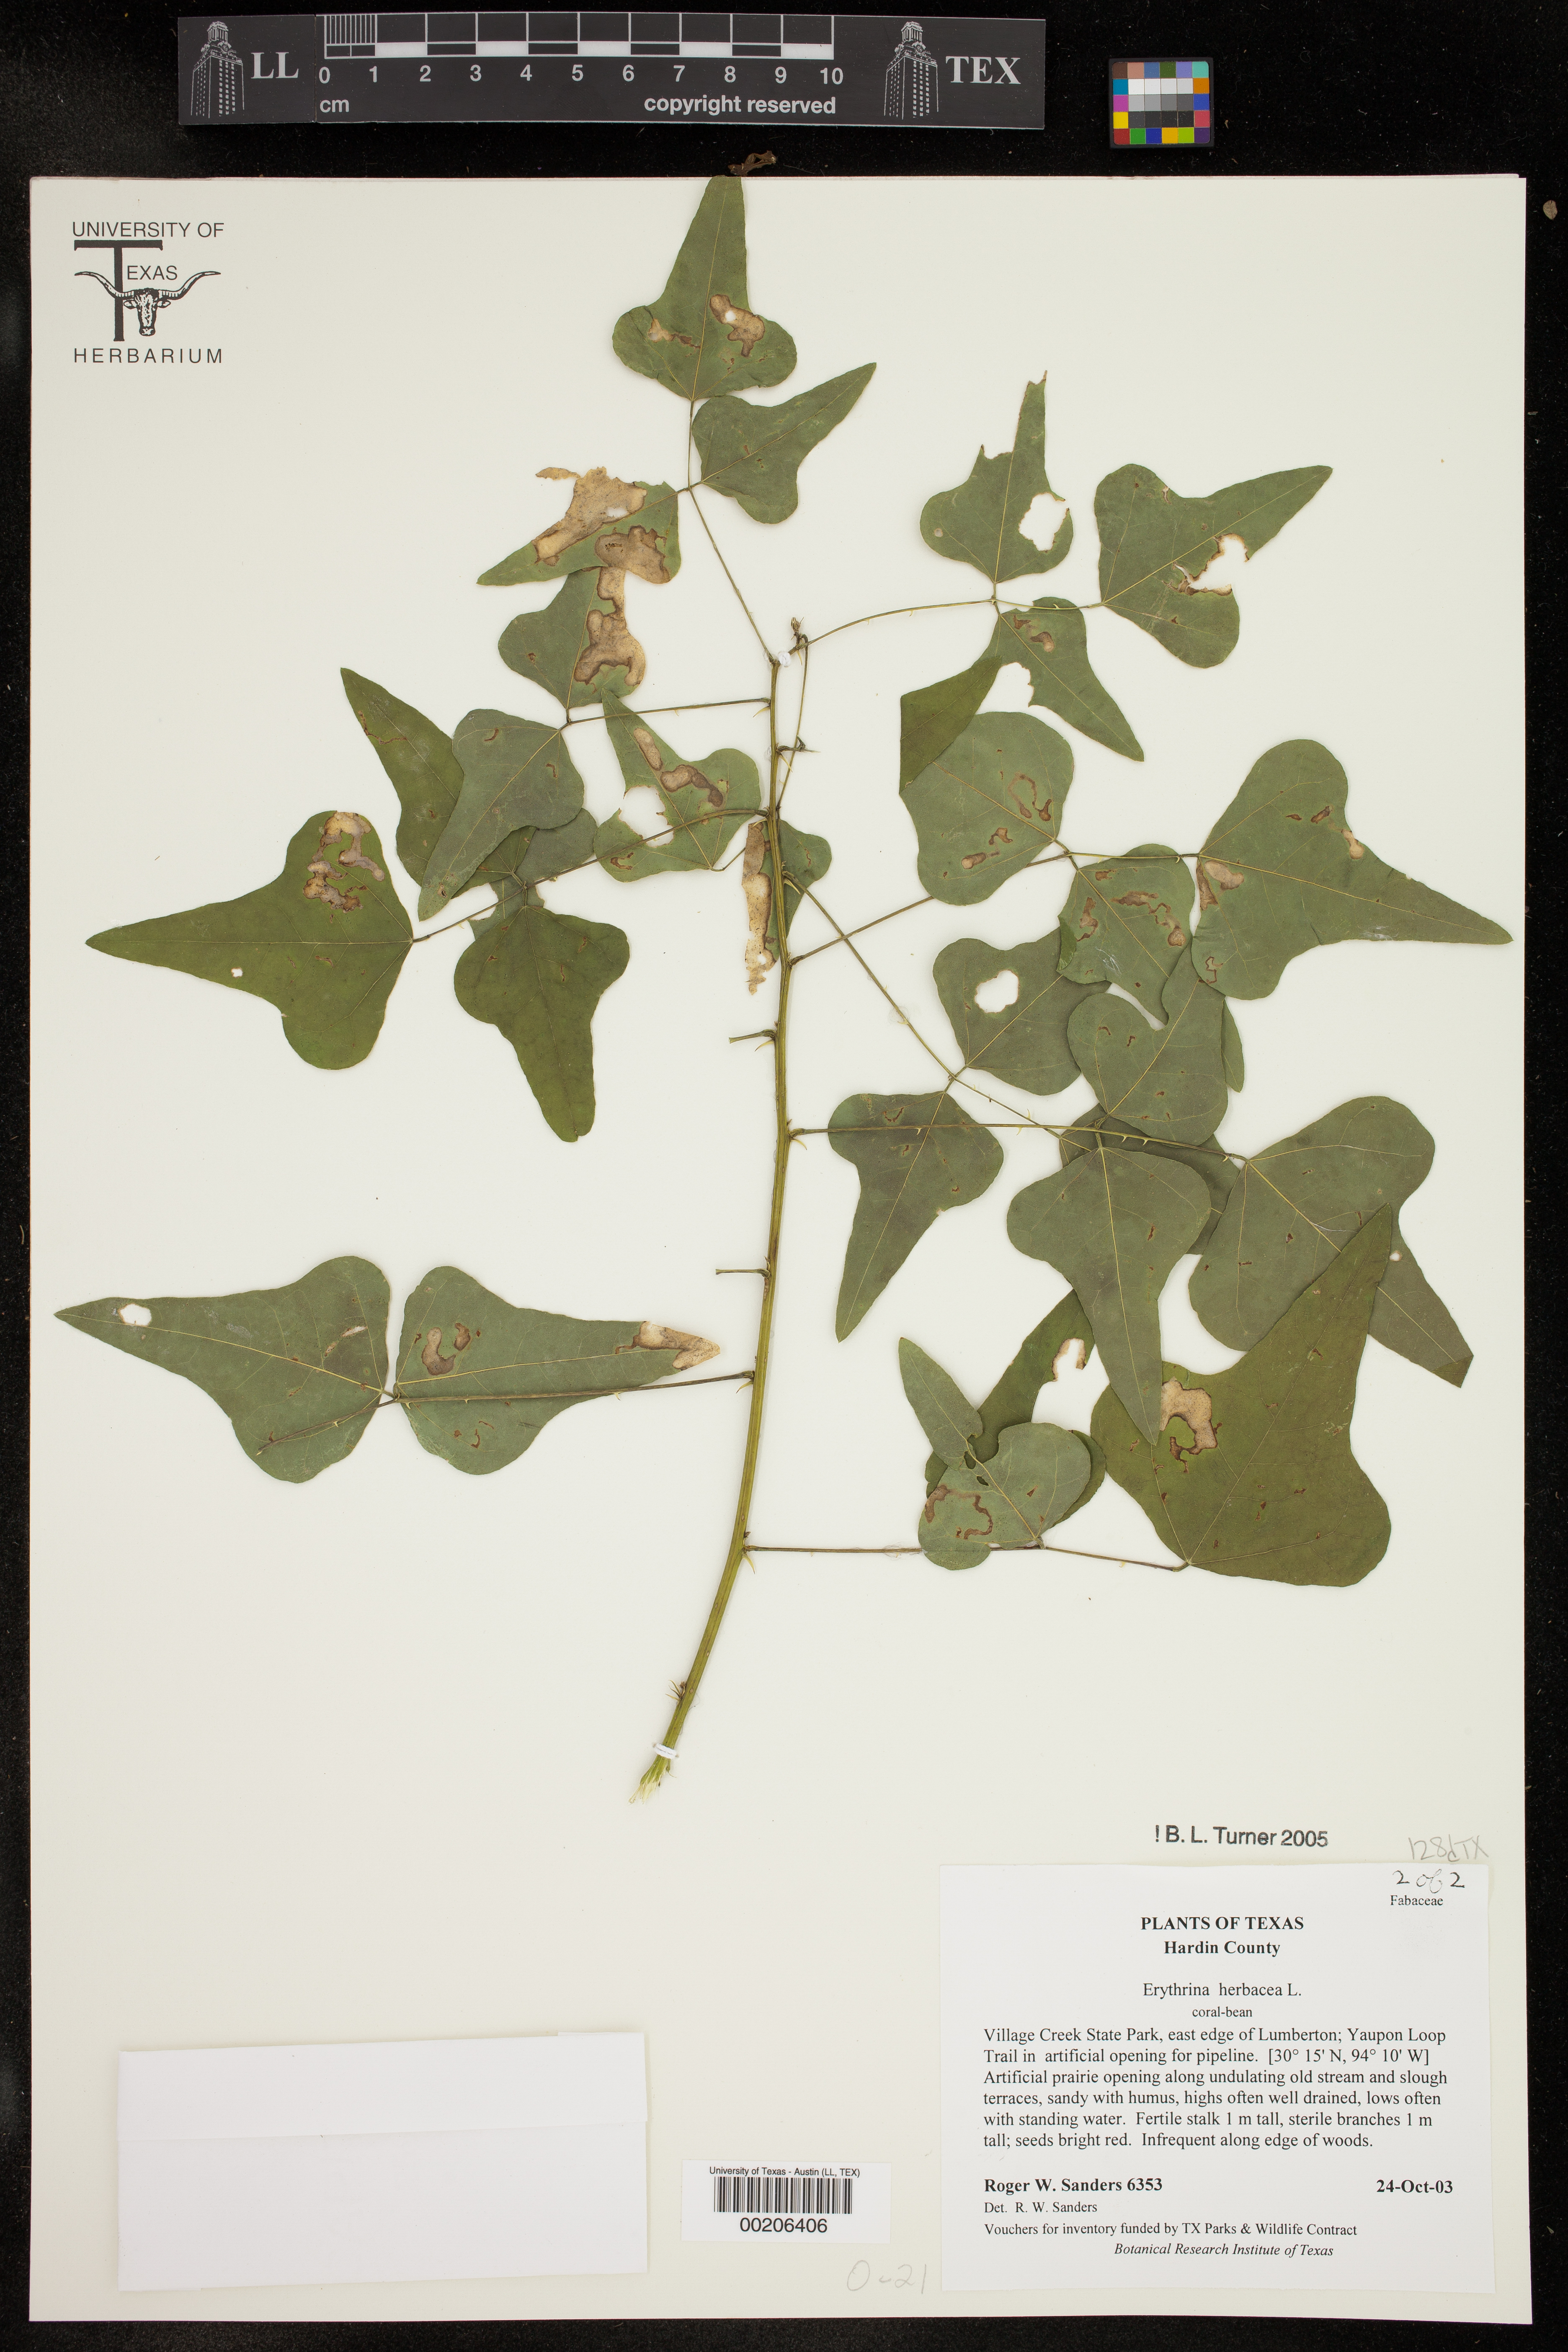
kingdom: Plantae
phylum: Tracheophyta
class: Magnoliopsida
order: Fabales
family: Fabaceae
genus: Erythrina
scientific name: Erythrina herbacea
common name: Coral-bean
